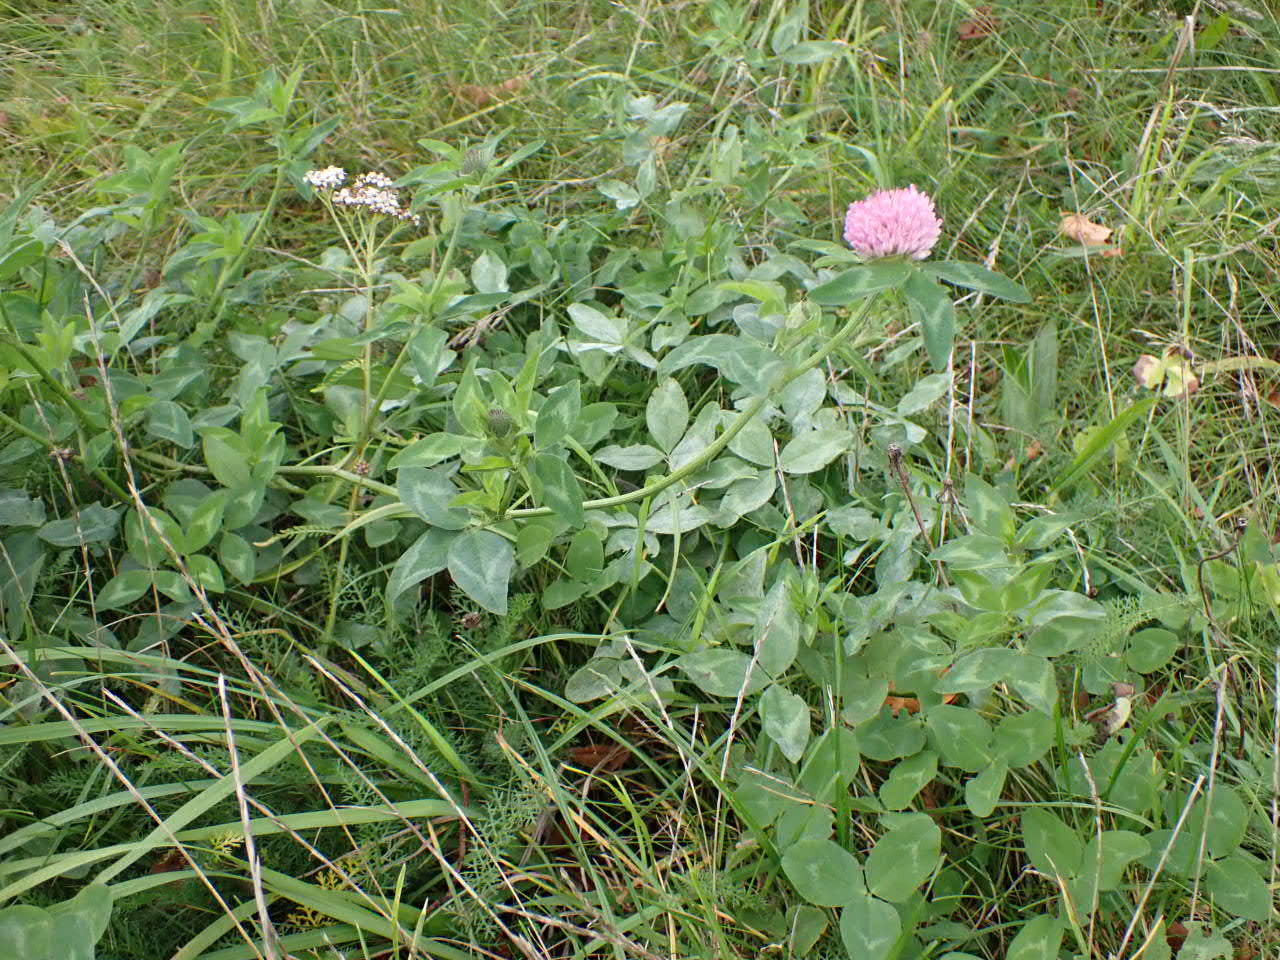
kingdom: Plantae
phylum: Tracheophyta
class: Magnoliopsida
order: Fabales
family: Fabaceae
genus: Trifolium
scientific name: Trifolium pratense
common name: Rød-kløver
